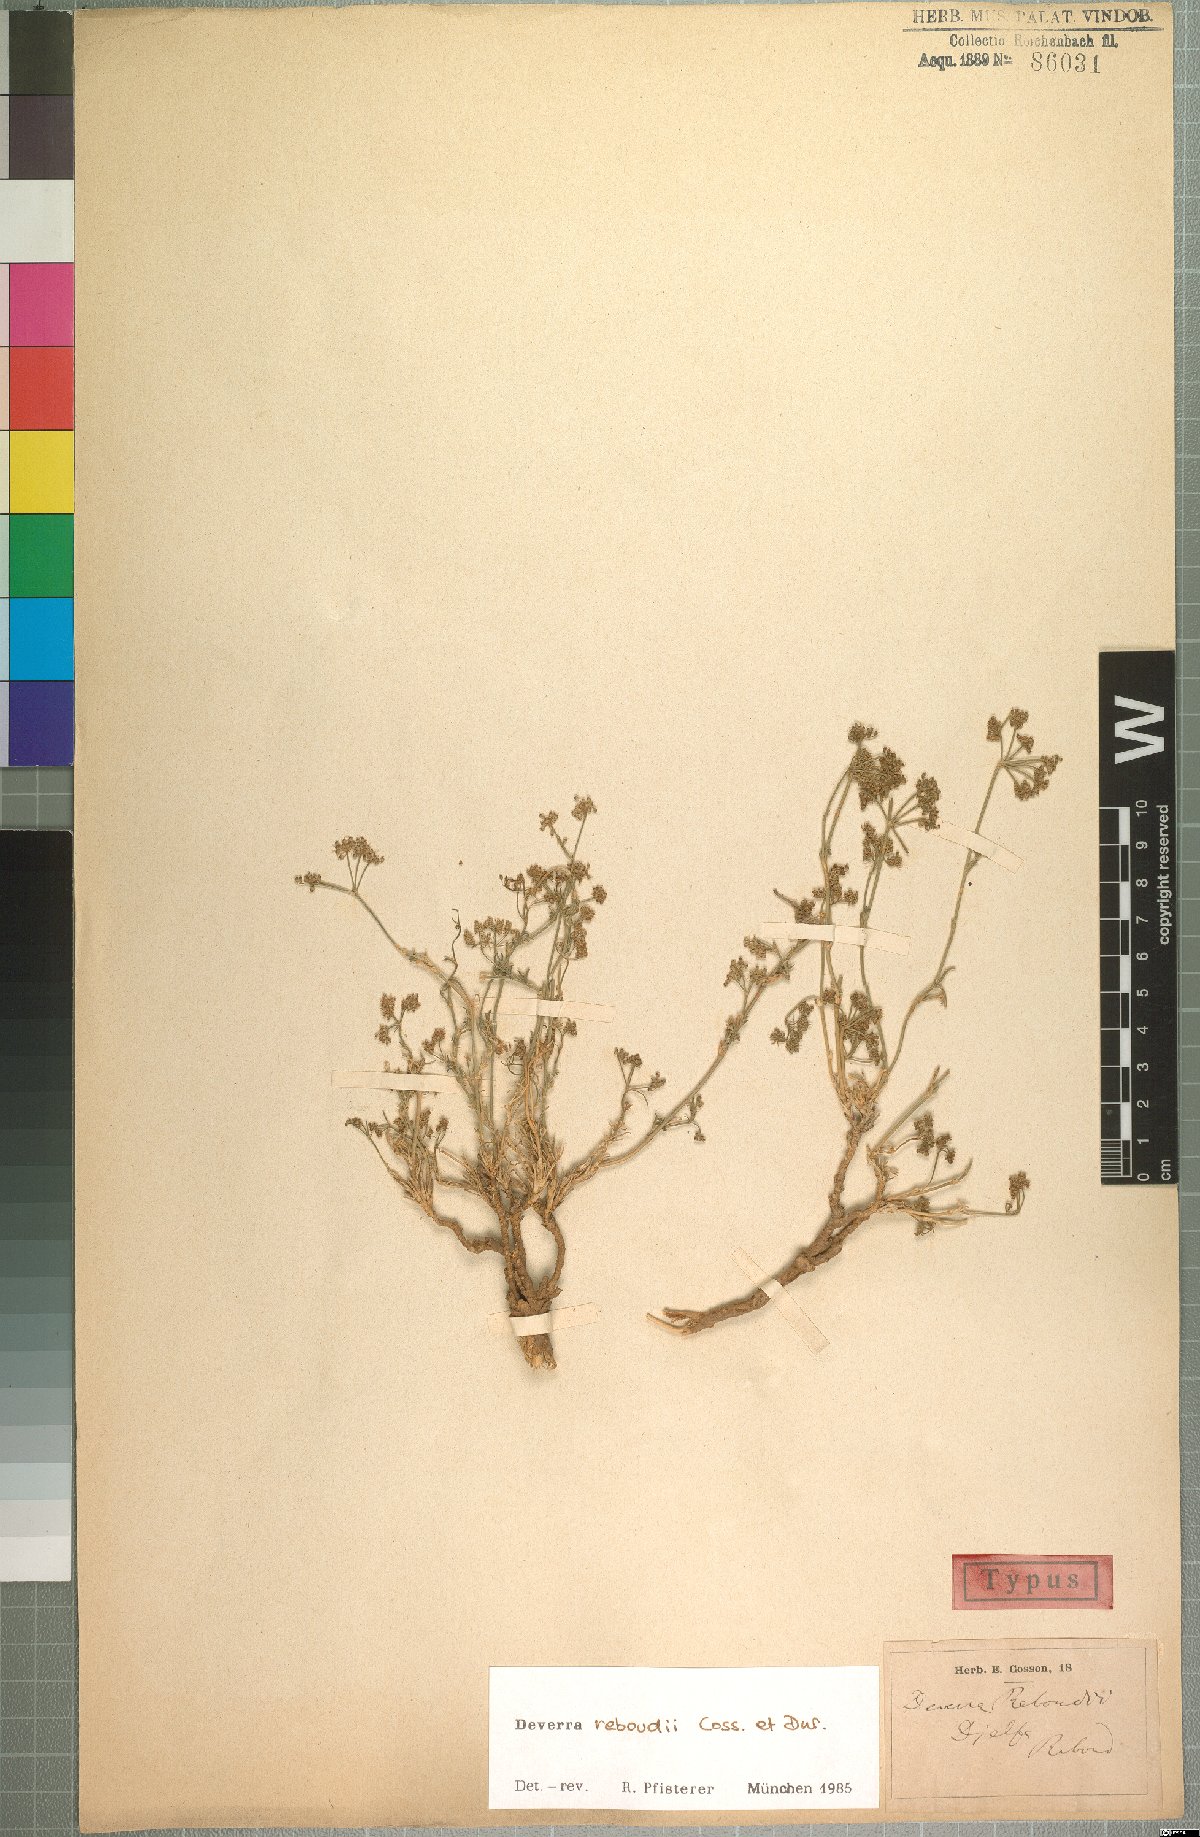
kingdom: Plantae
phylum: Tracheophyta
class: Magnoliopsida
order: Apiales
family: Apiaceae
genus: Deverra
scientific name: Deverra reboudii
